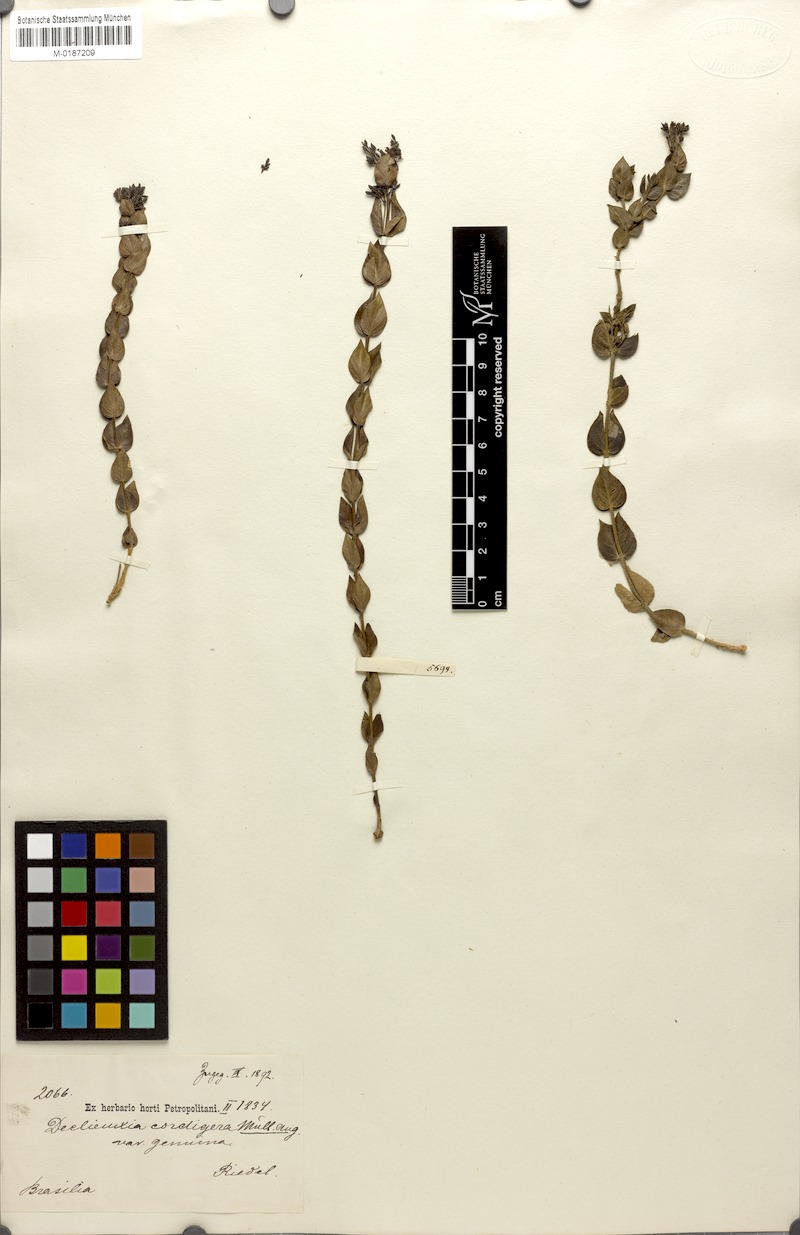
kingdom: Plantae
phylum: Tracheophyta
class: Magnoliopsida
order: Gentianales
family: Rubiaceae
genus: Declieuxia
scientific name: Declieuxia cordigera
